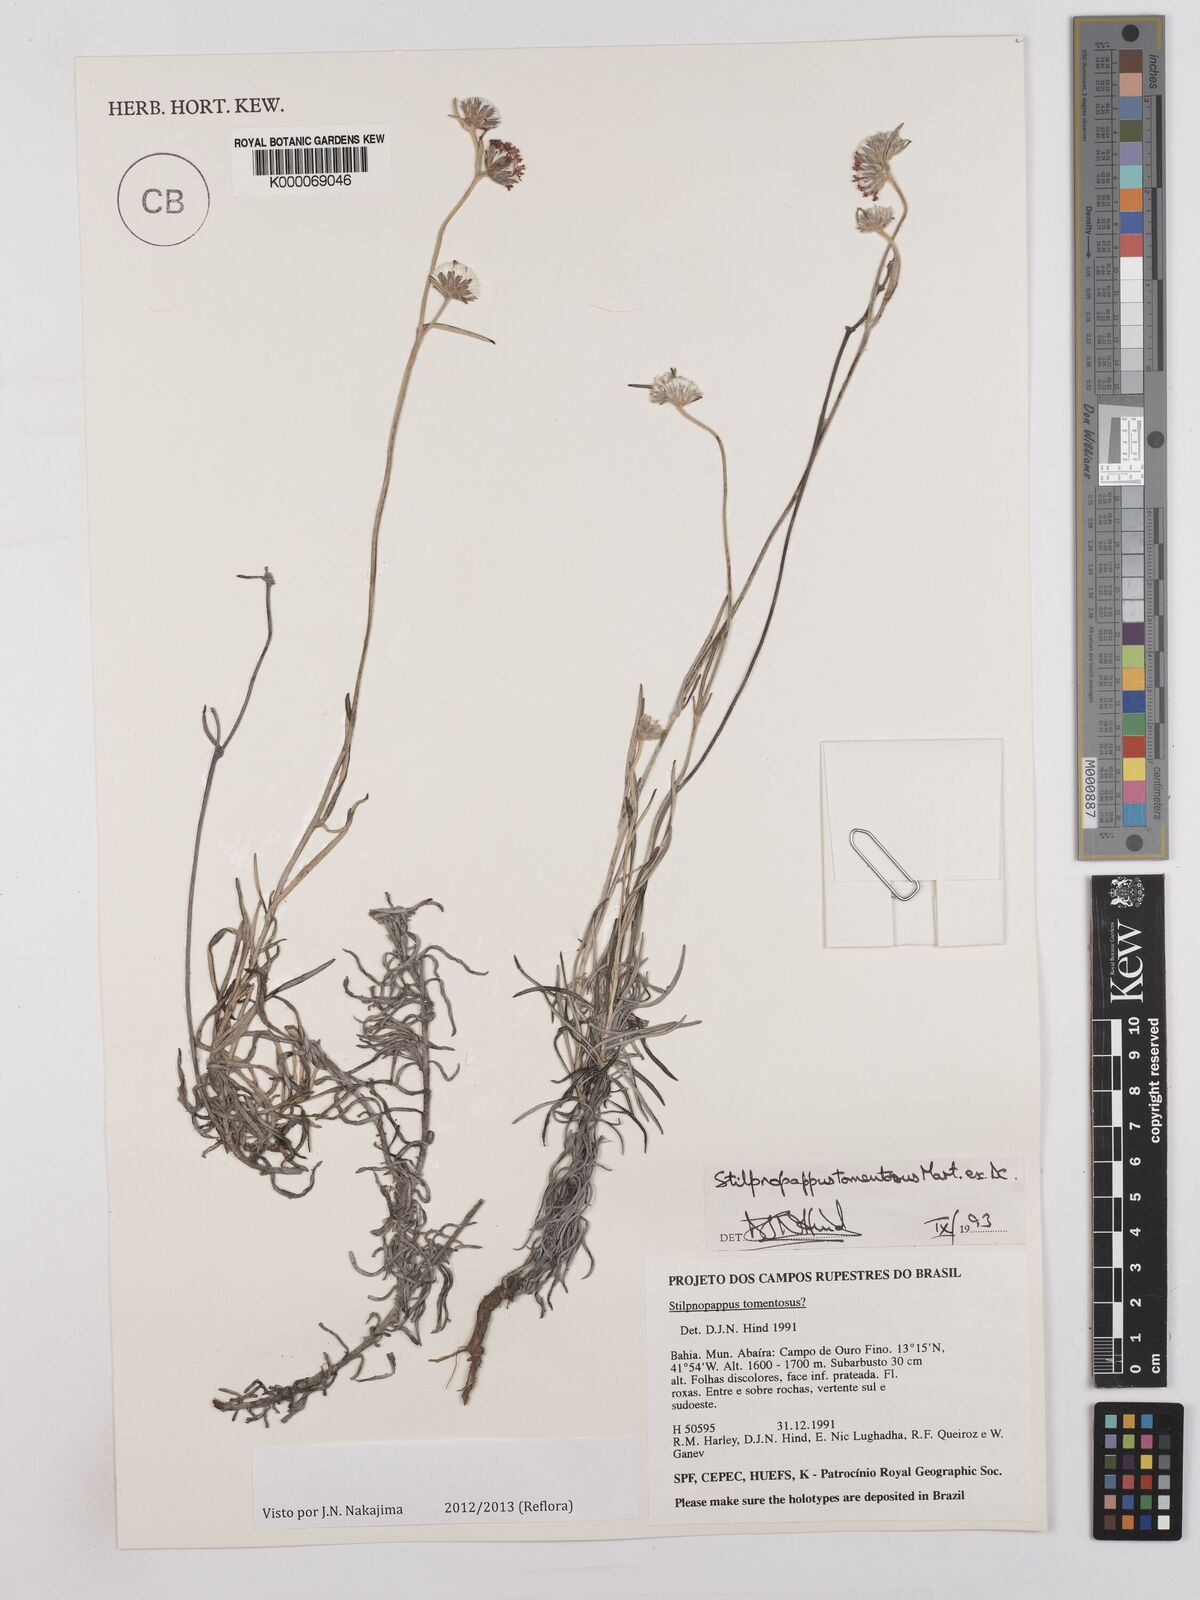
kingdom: Plantae
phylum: Tracheophyta
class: Magnoliopsida
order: Asterales
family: Asteraceae
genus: Stilpnopappus
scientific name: Stilpnopappus tomentosus
